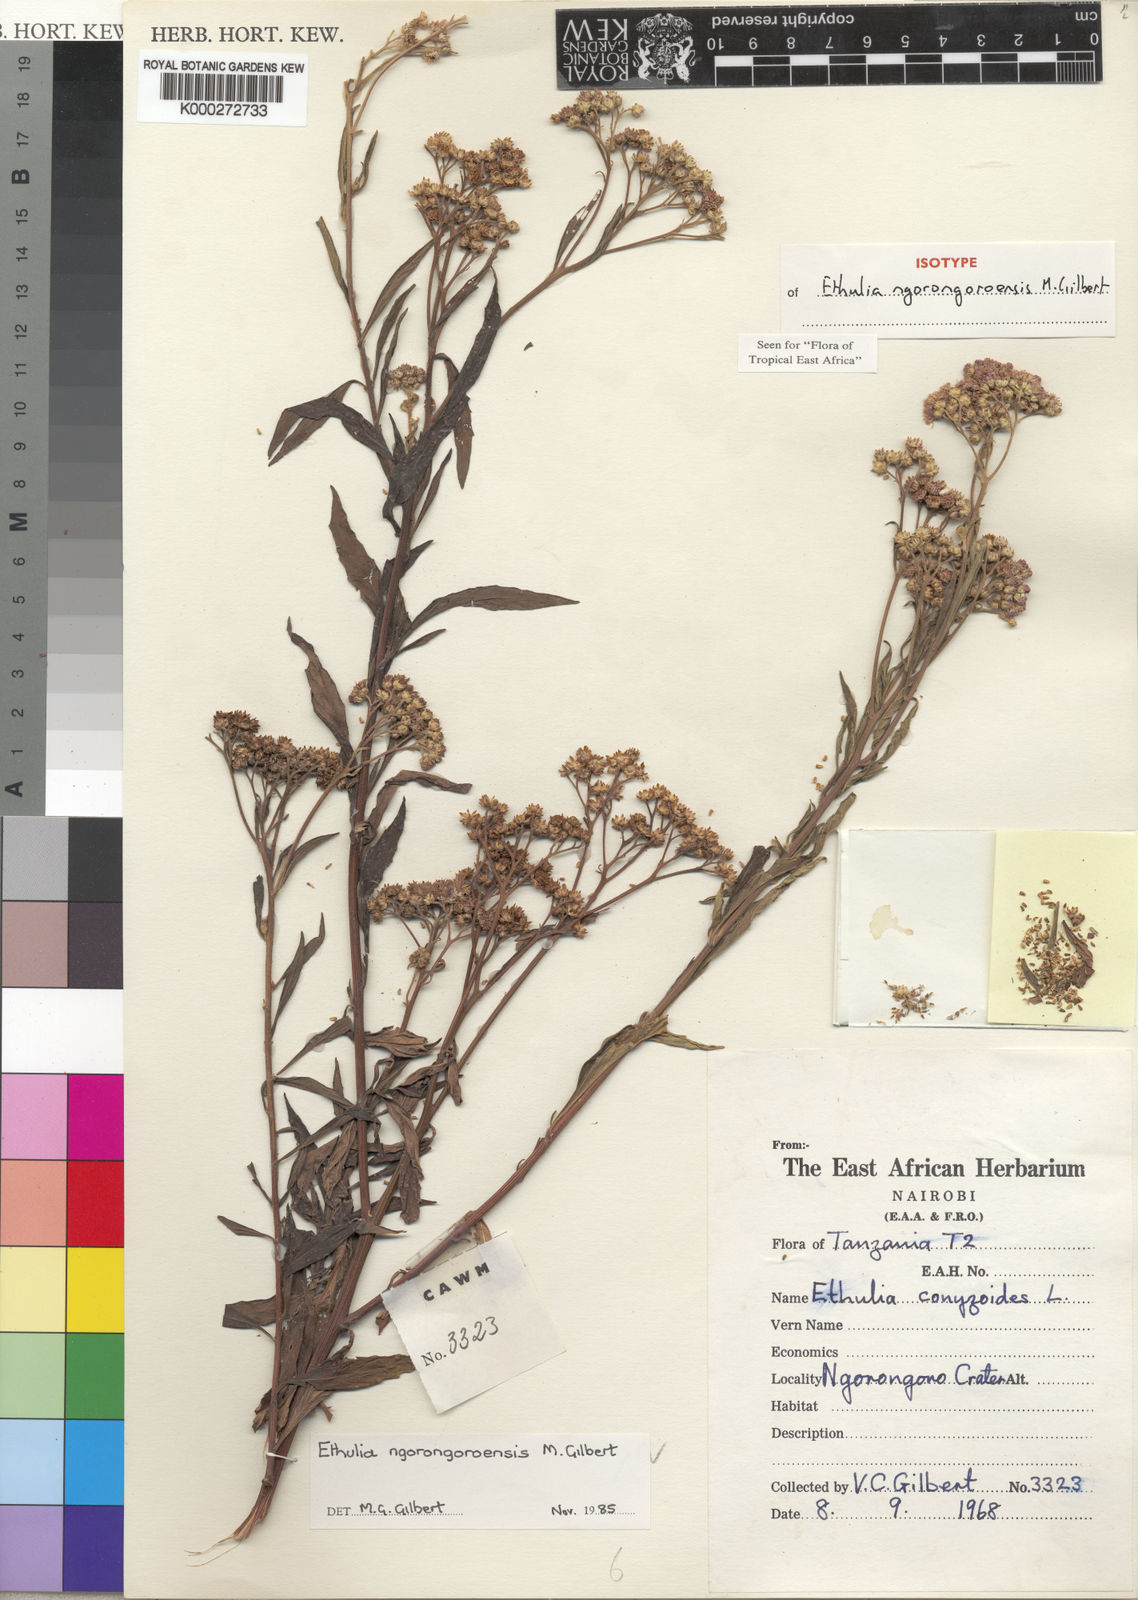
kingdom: Plantae
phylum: Tracheophyta
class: Magnoliopsida
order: Asterales
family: Asteraceae
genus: Ethulia
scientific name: Ethulia ngorongoroensis
